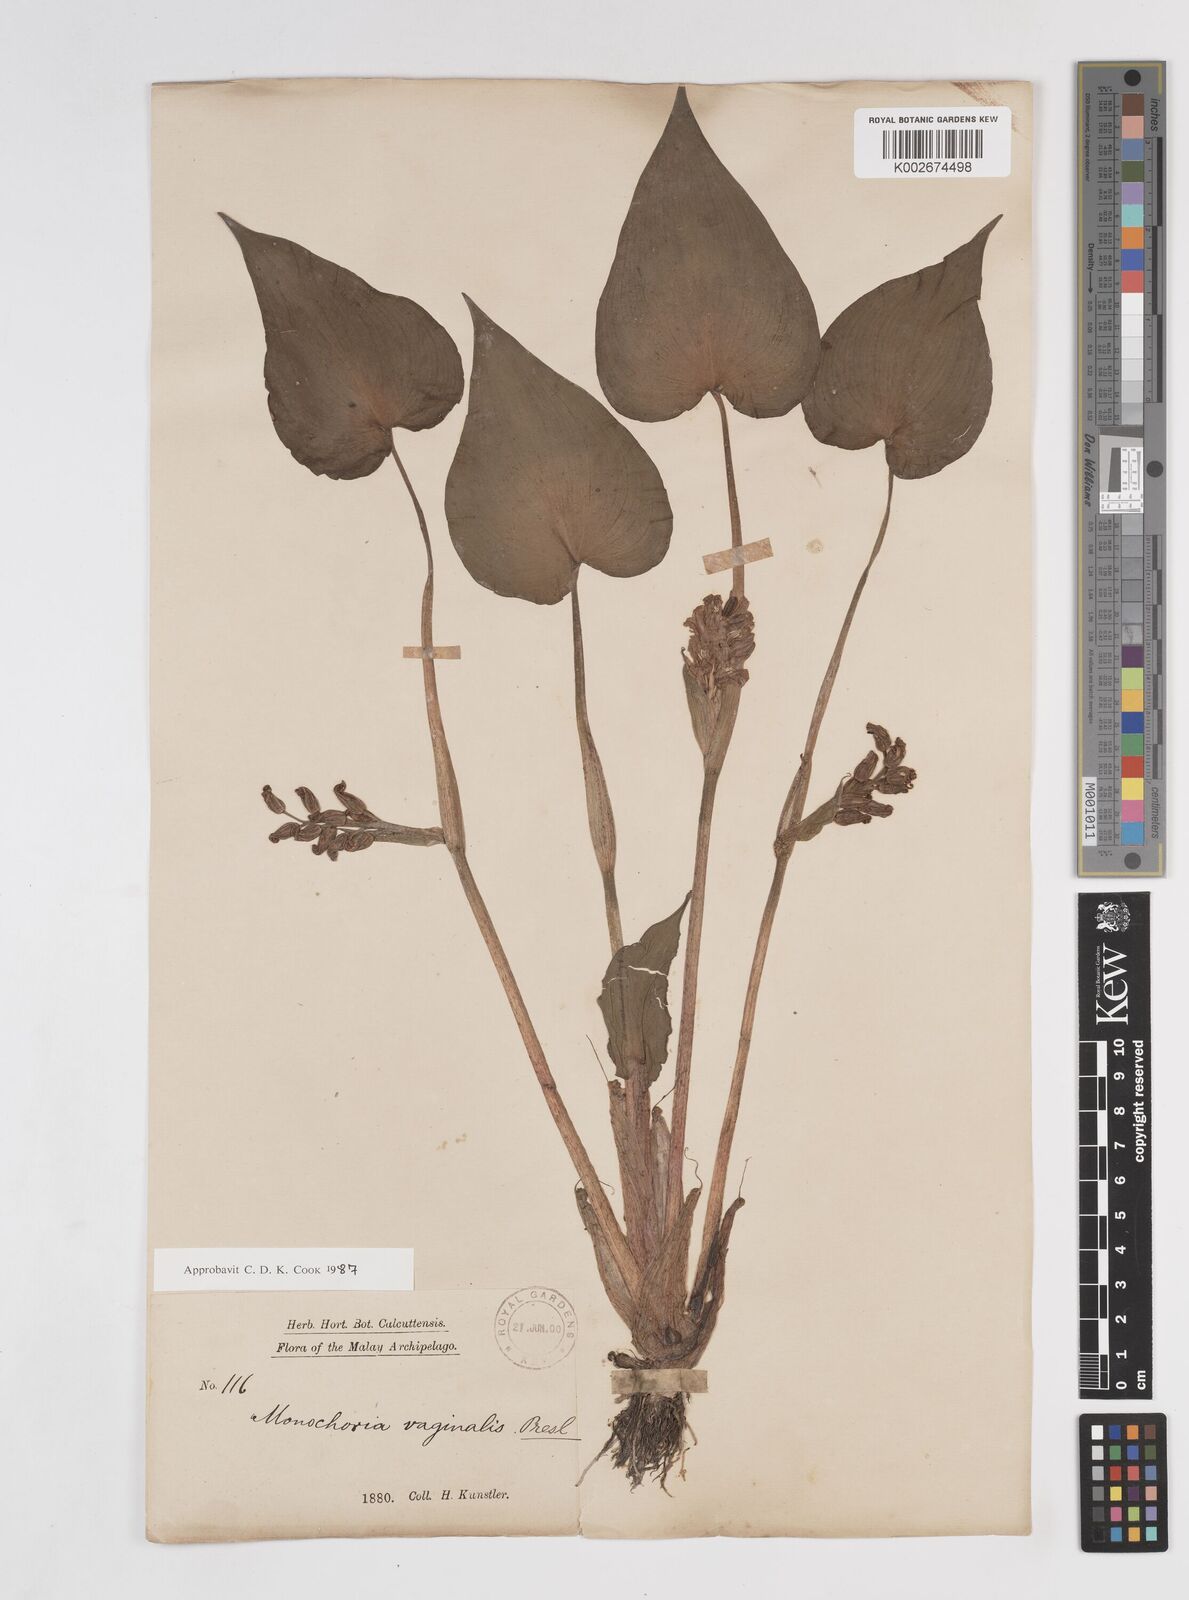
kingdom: Plantae
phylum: Tracheophyta
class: Liliopsida
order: Commelinales
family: Pontederiaceae
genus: Pontederia
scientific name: Pontederia vaginalis
